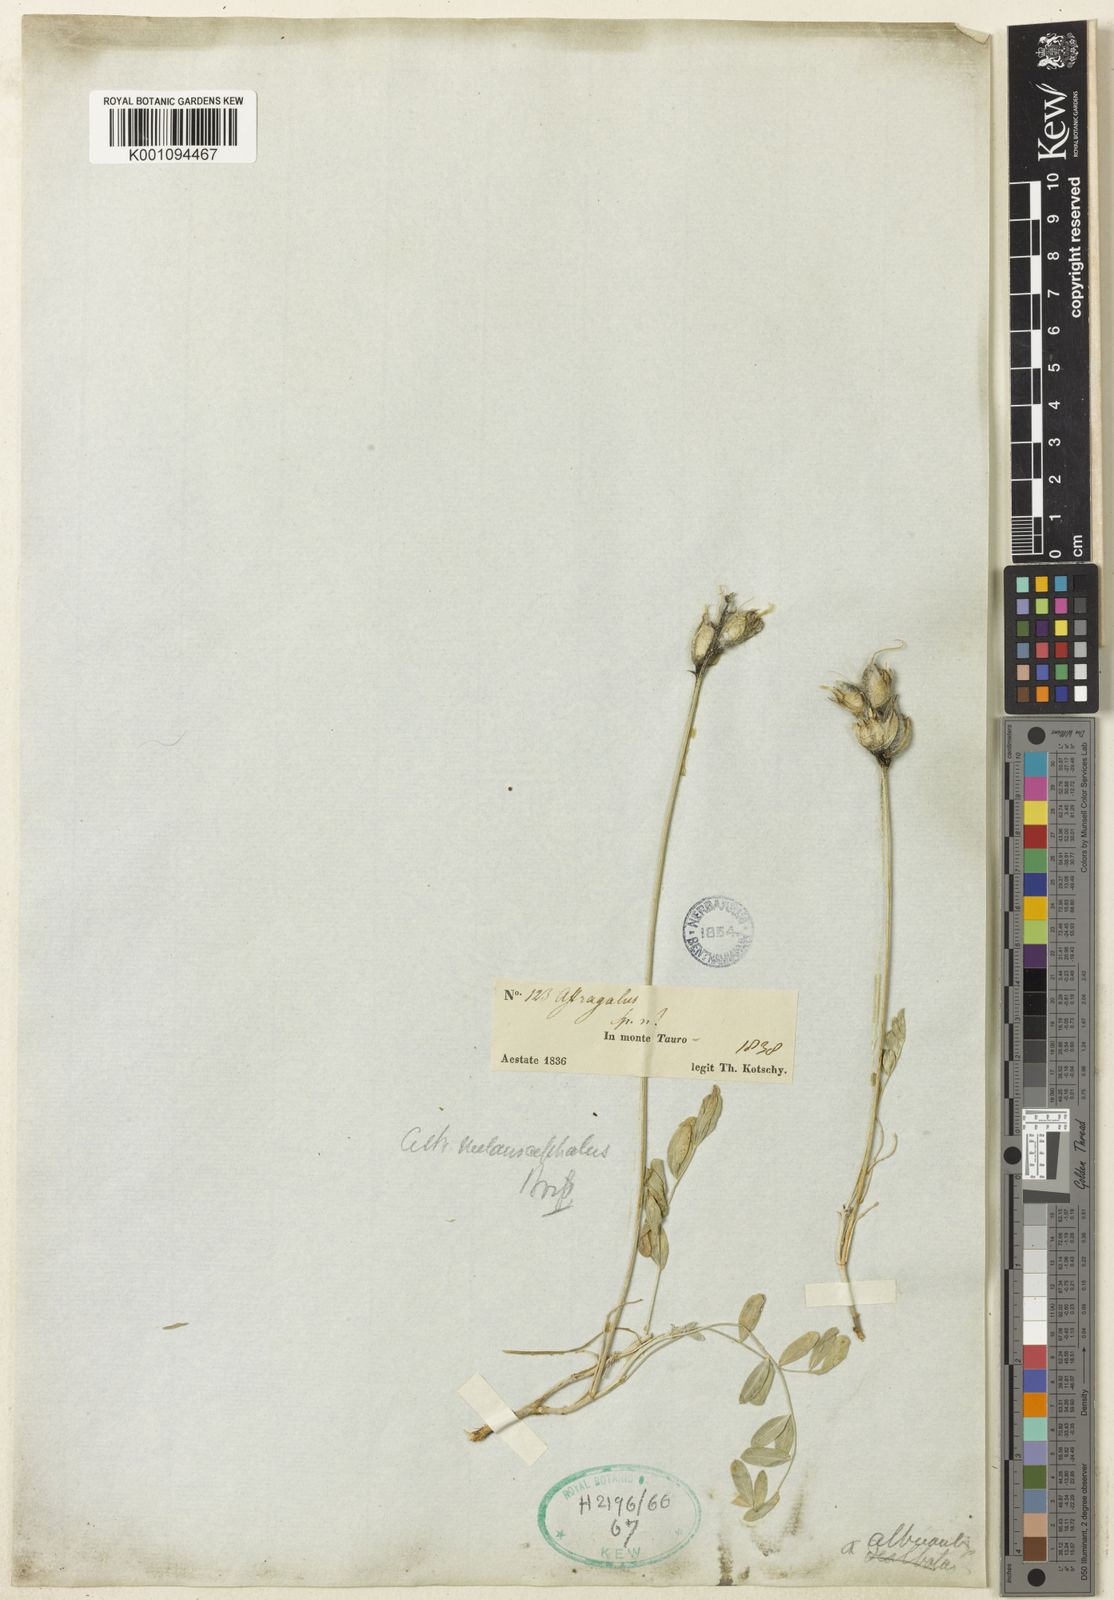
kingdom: Plantae
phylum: Tracheophyta
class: Magnoliopsida
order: Fabales
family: Fabaceae
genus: Astragalus
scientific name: Astragalus
